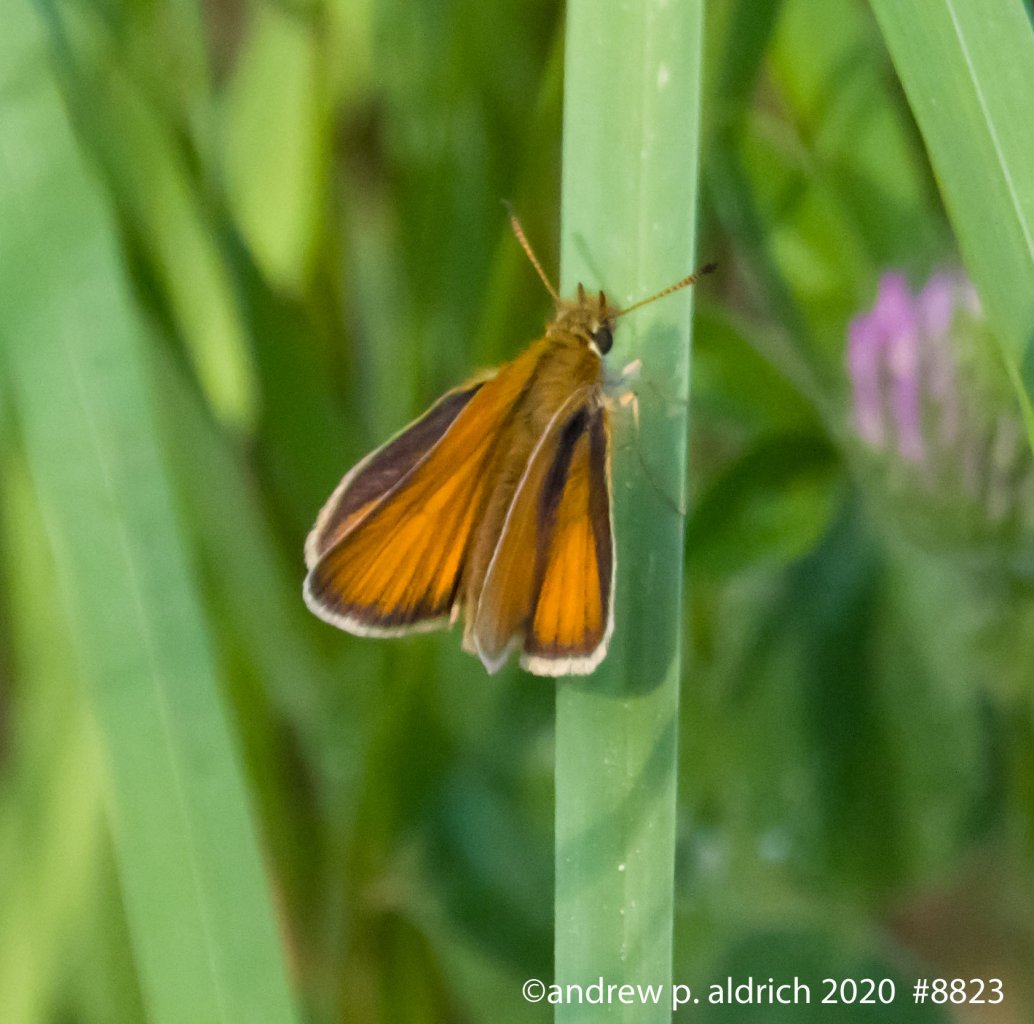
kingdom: Animalia
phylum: Arthropoda
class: Insecta
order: Lepidoptera
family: Hesperiidae
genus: Thymelicus
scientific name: Thymelicus lineola
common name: European Skipper
